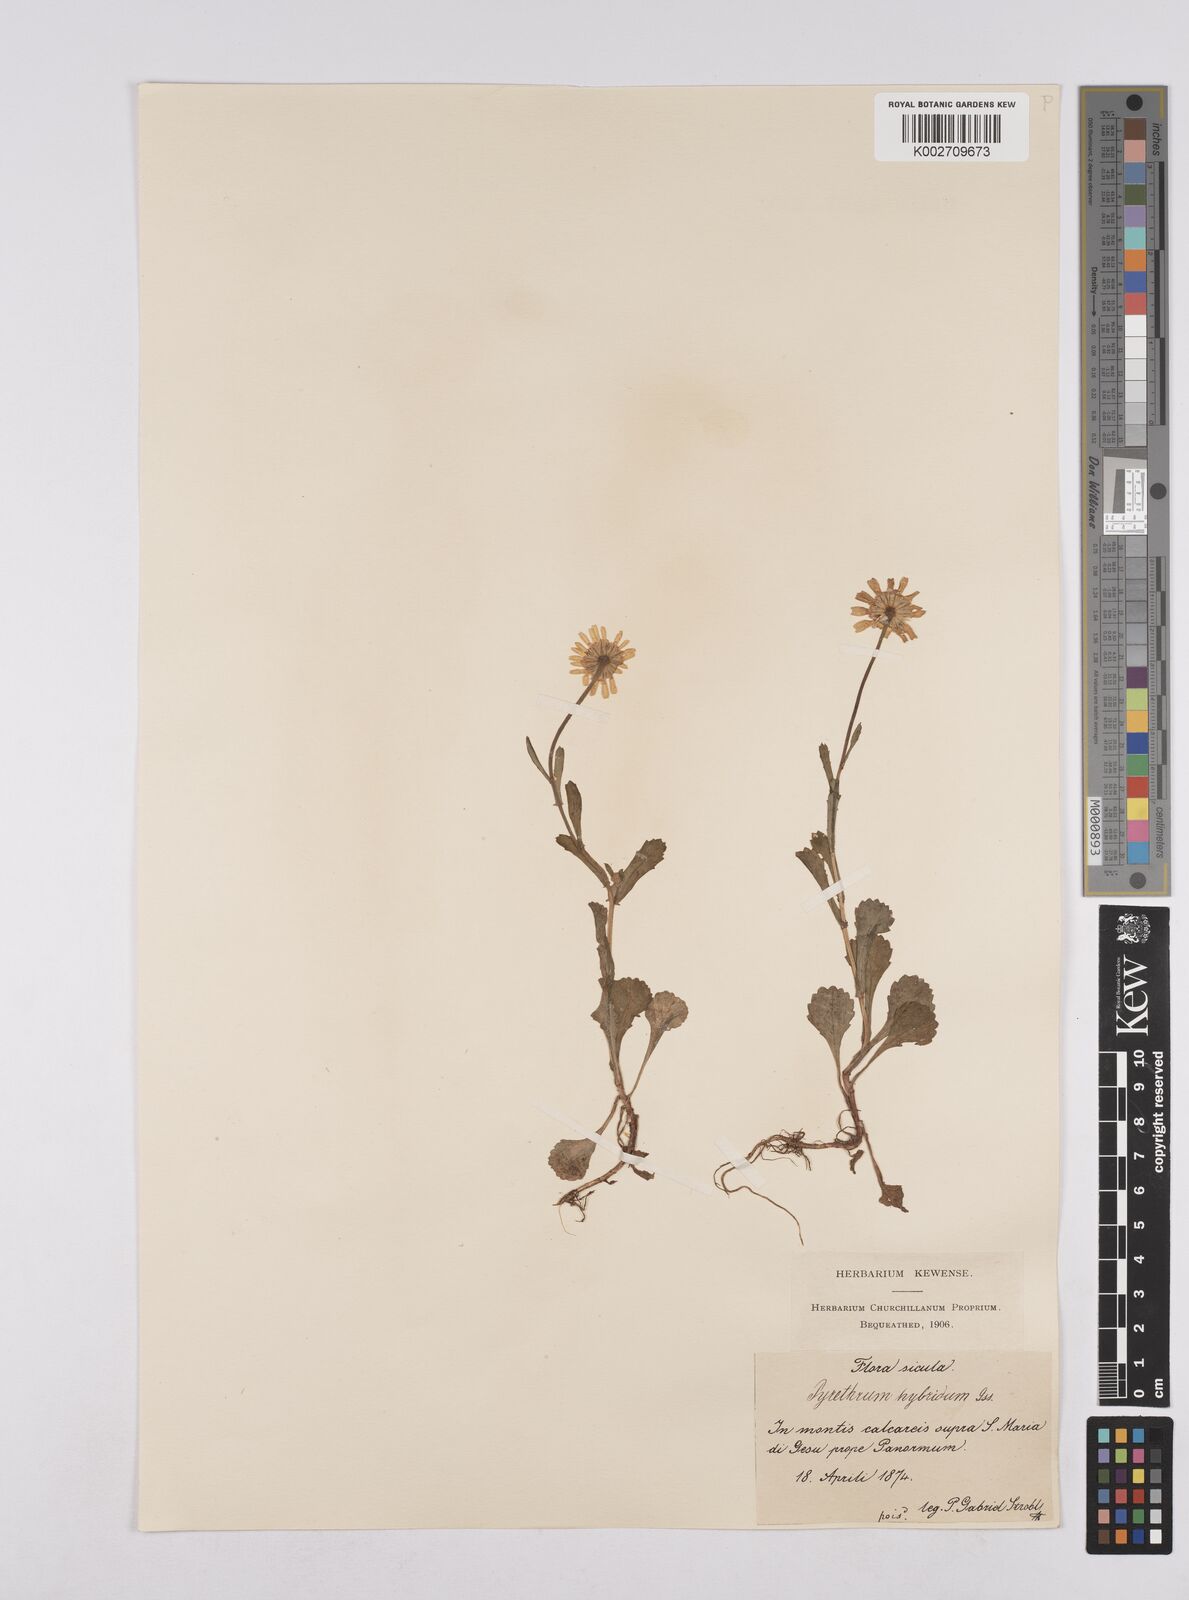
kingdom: Plantae
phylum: Tracheophyta
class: Magnoliopsida
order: Asterales
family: Asteraceae
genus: Coleostephus
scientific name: Coleostephus paludosus
